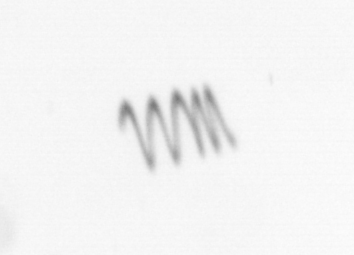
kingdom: Chromista
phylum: Ochrophyta
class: Bacillariophyceae
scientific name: Bacillariophyceae
